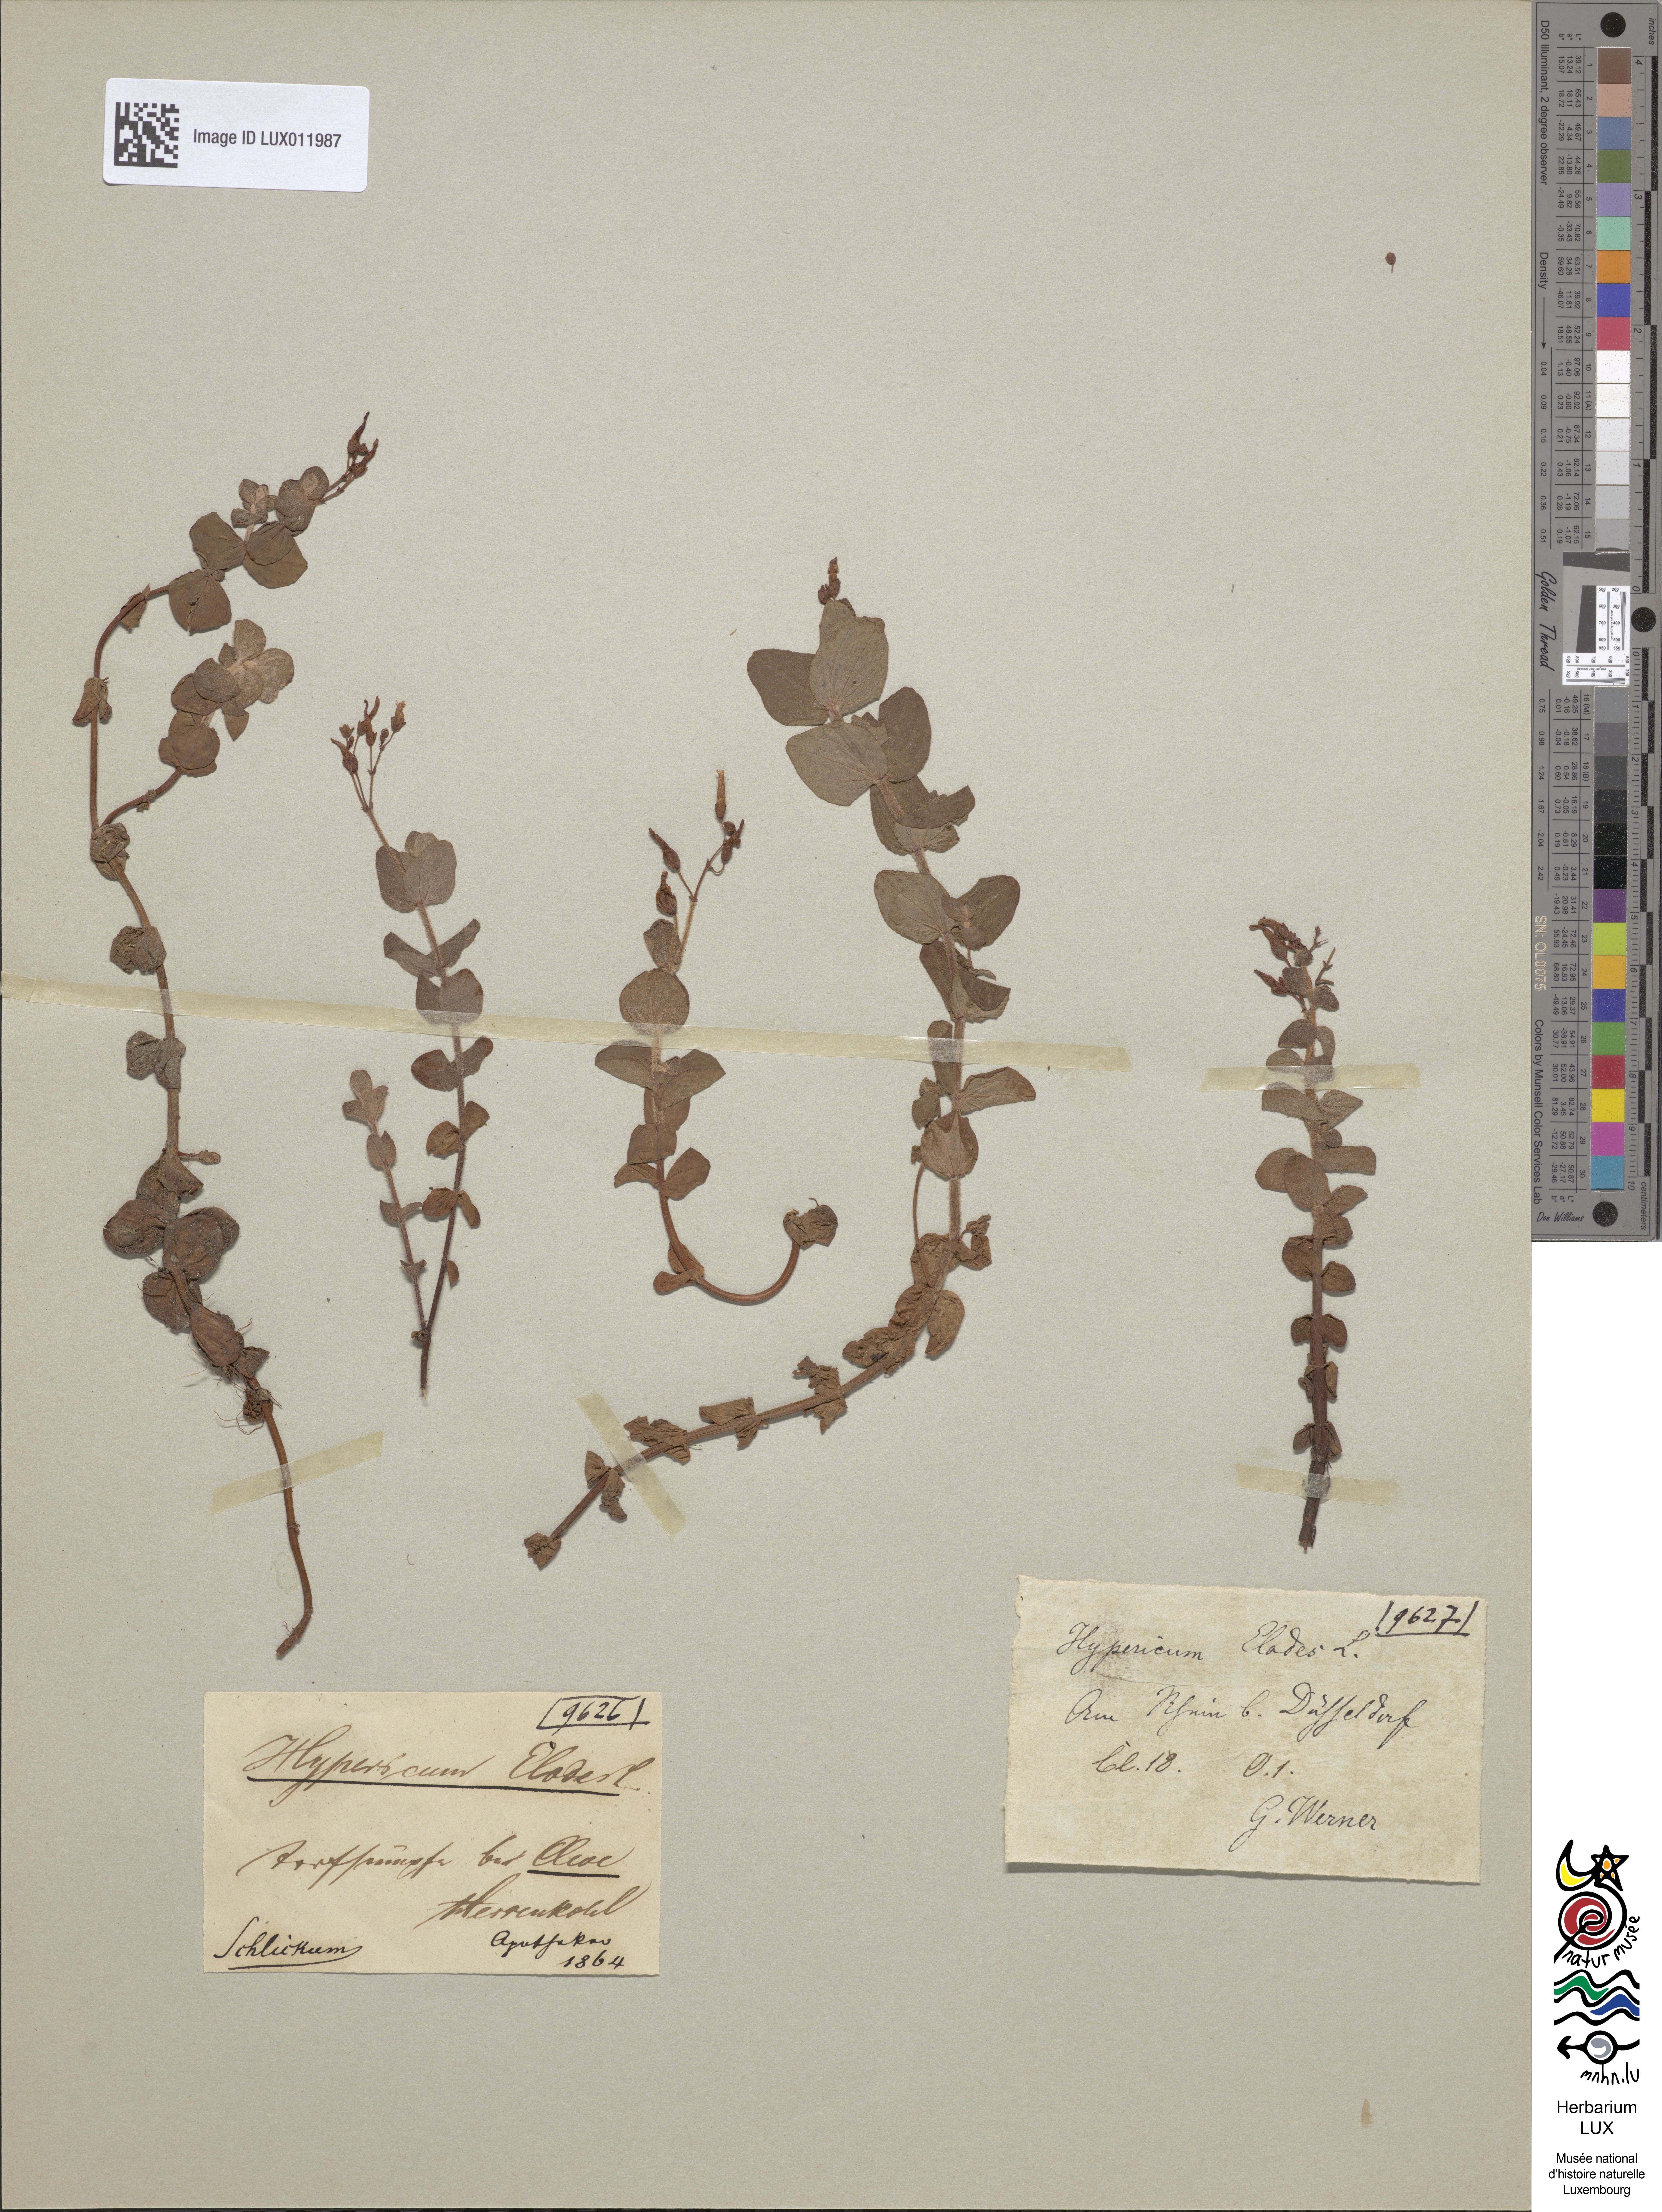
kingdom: Plantae
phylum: Tracheophyta
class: Magnoliopsida
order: Malpighiales
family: Hypericaceae
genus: Hypericum
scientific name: Hypericum elodes
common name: Marsh st. john's-wort
